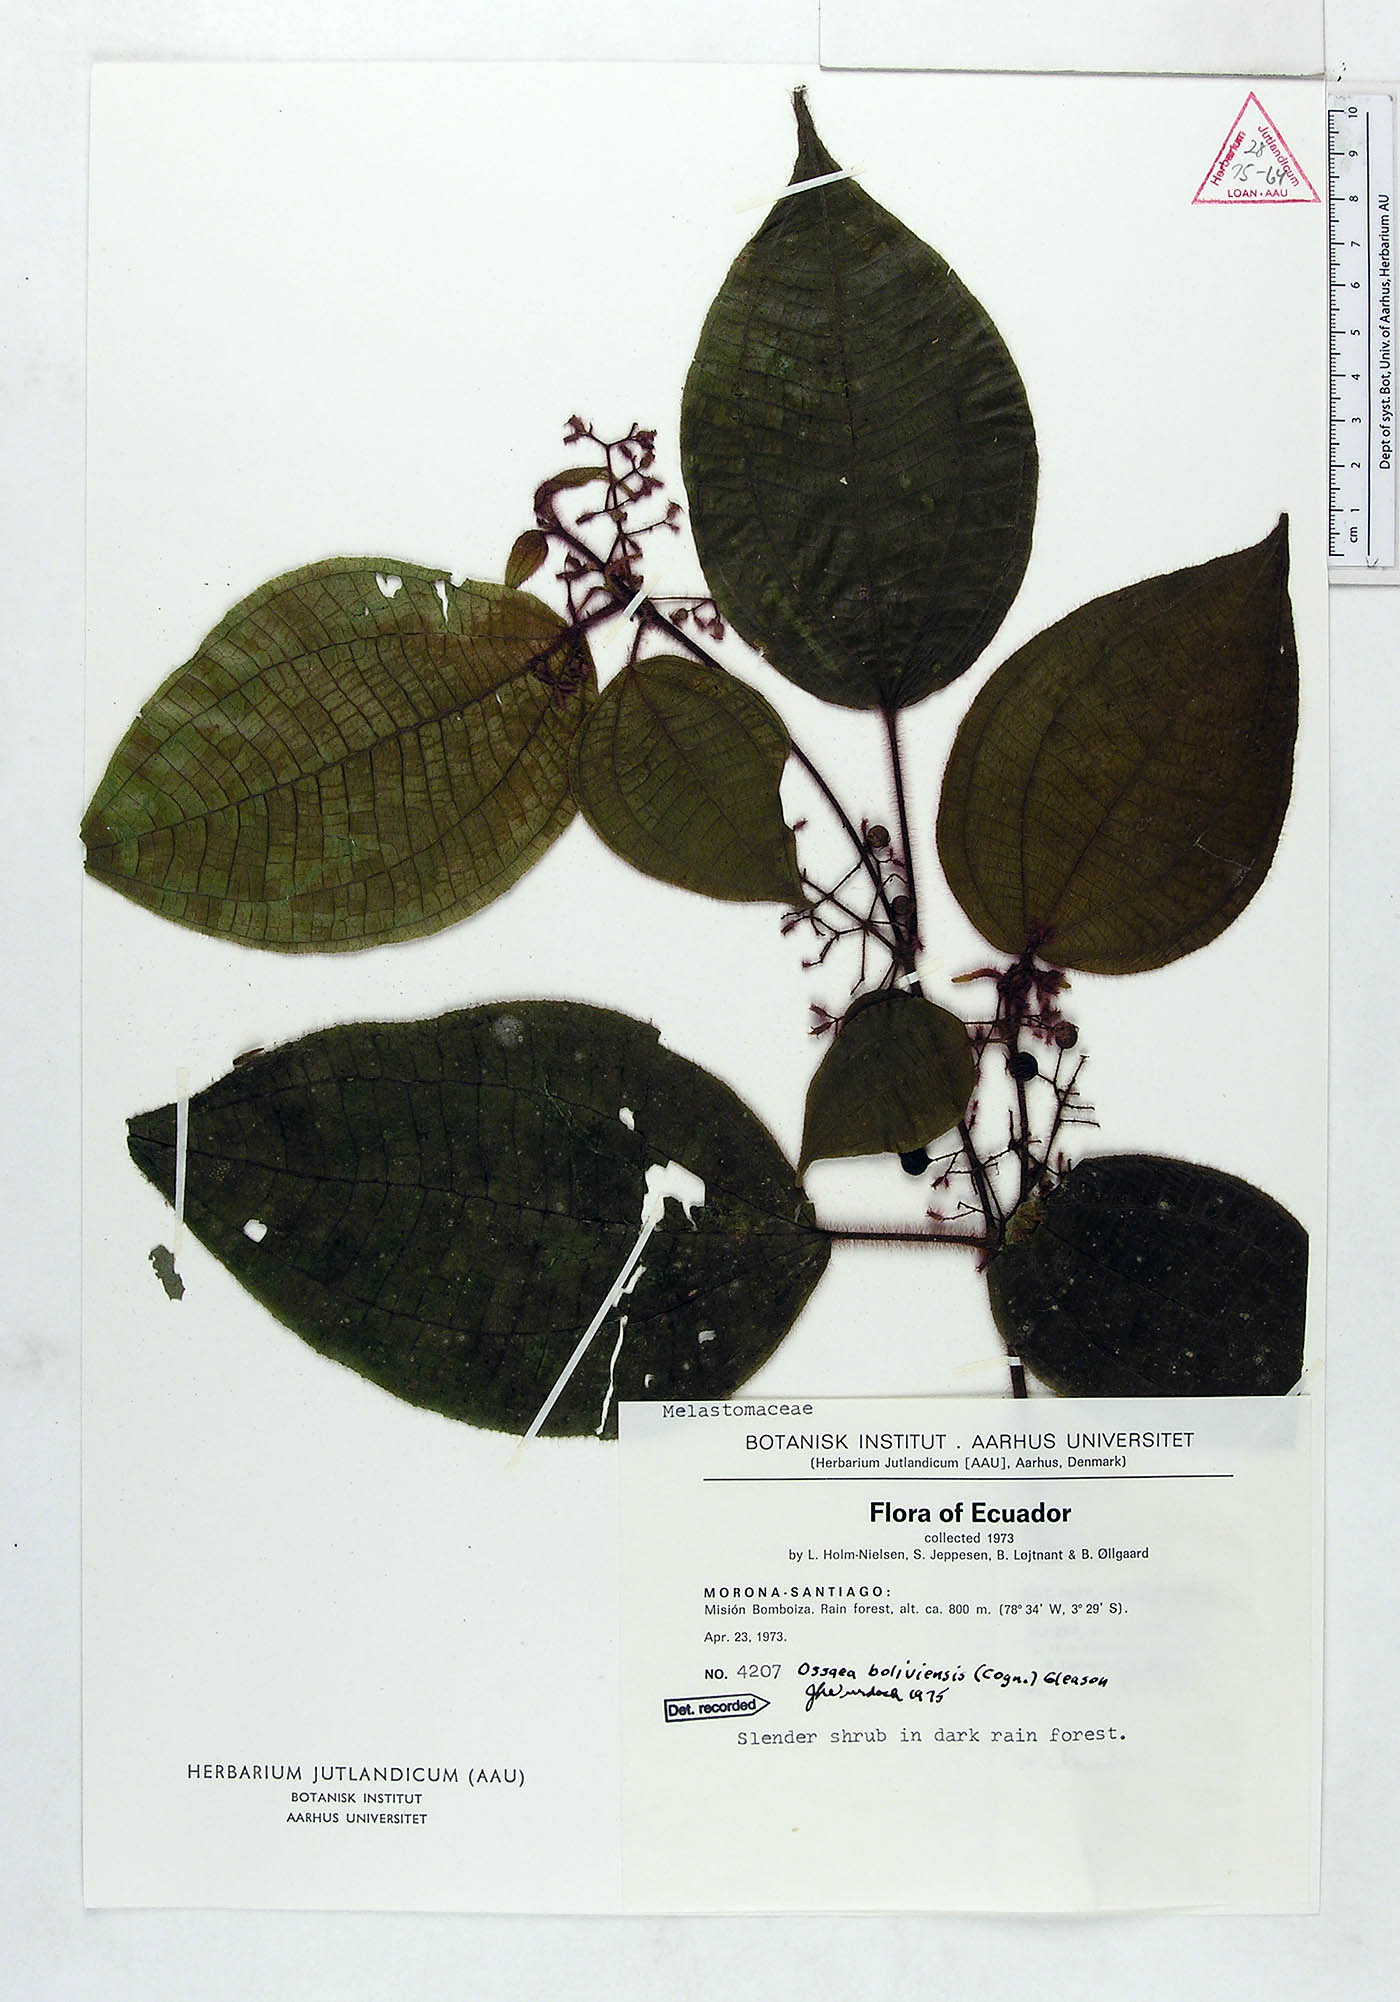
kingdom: Plantae
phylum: Tracheophyta
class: Magnoliopsida
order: Myrtales
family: Melastomataceae
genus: Miconia
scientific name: Miconia violascens
